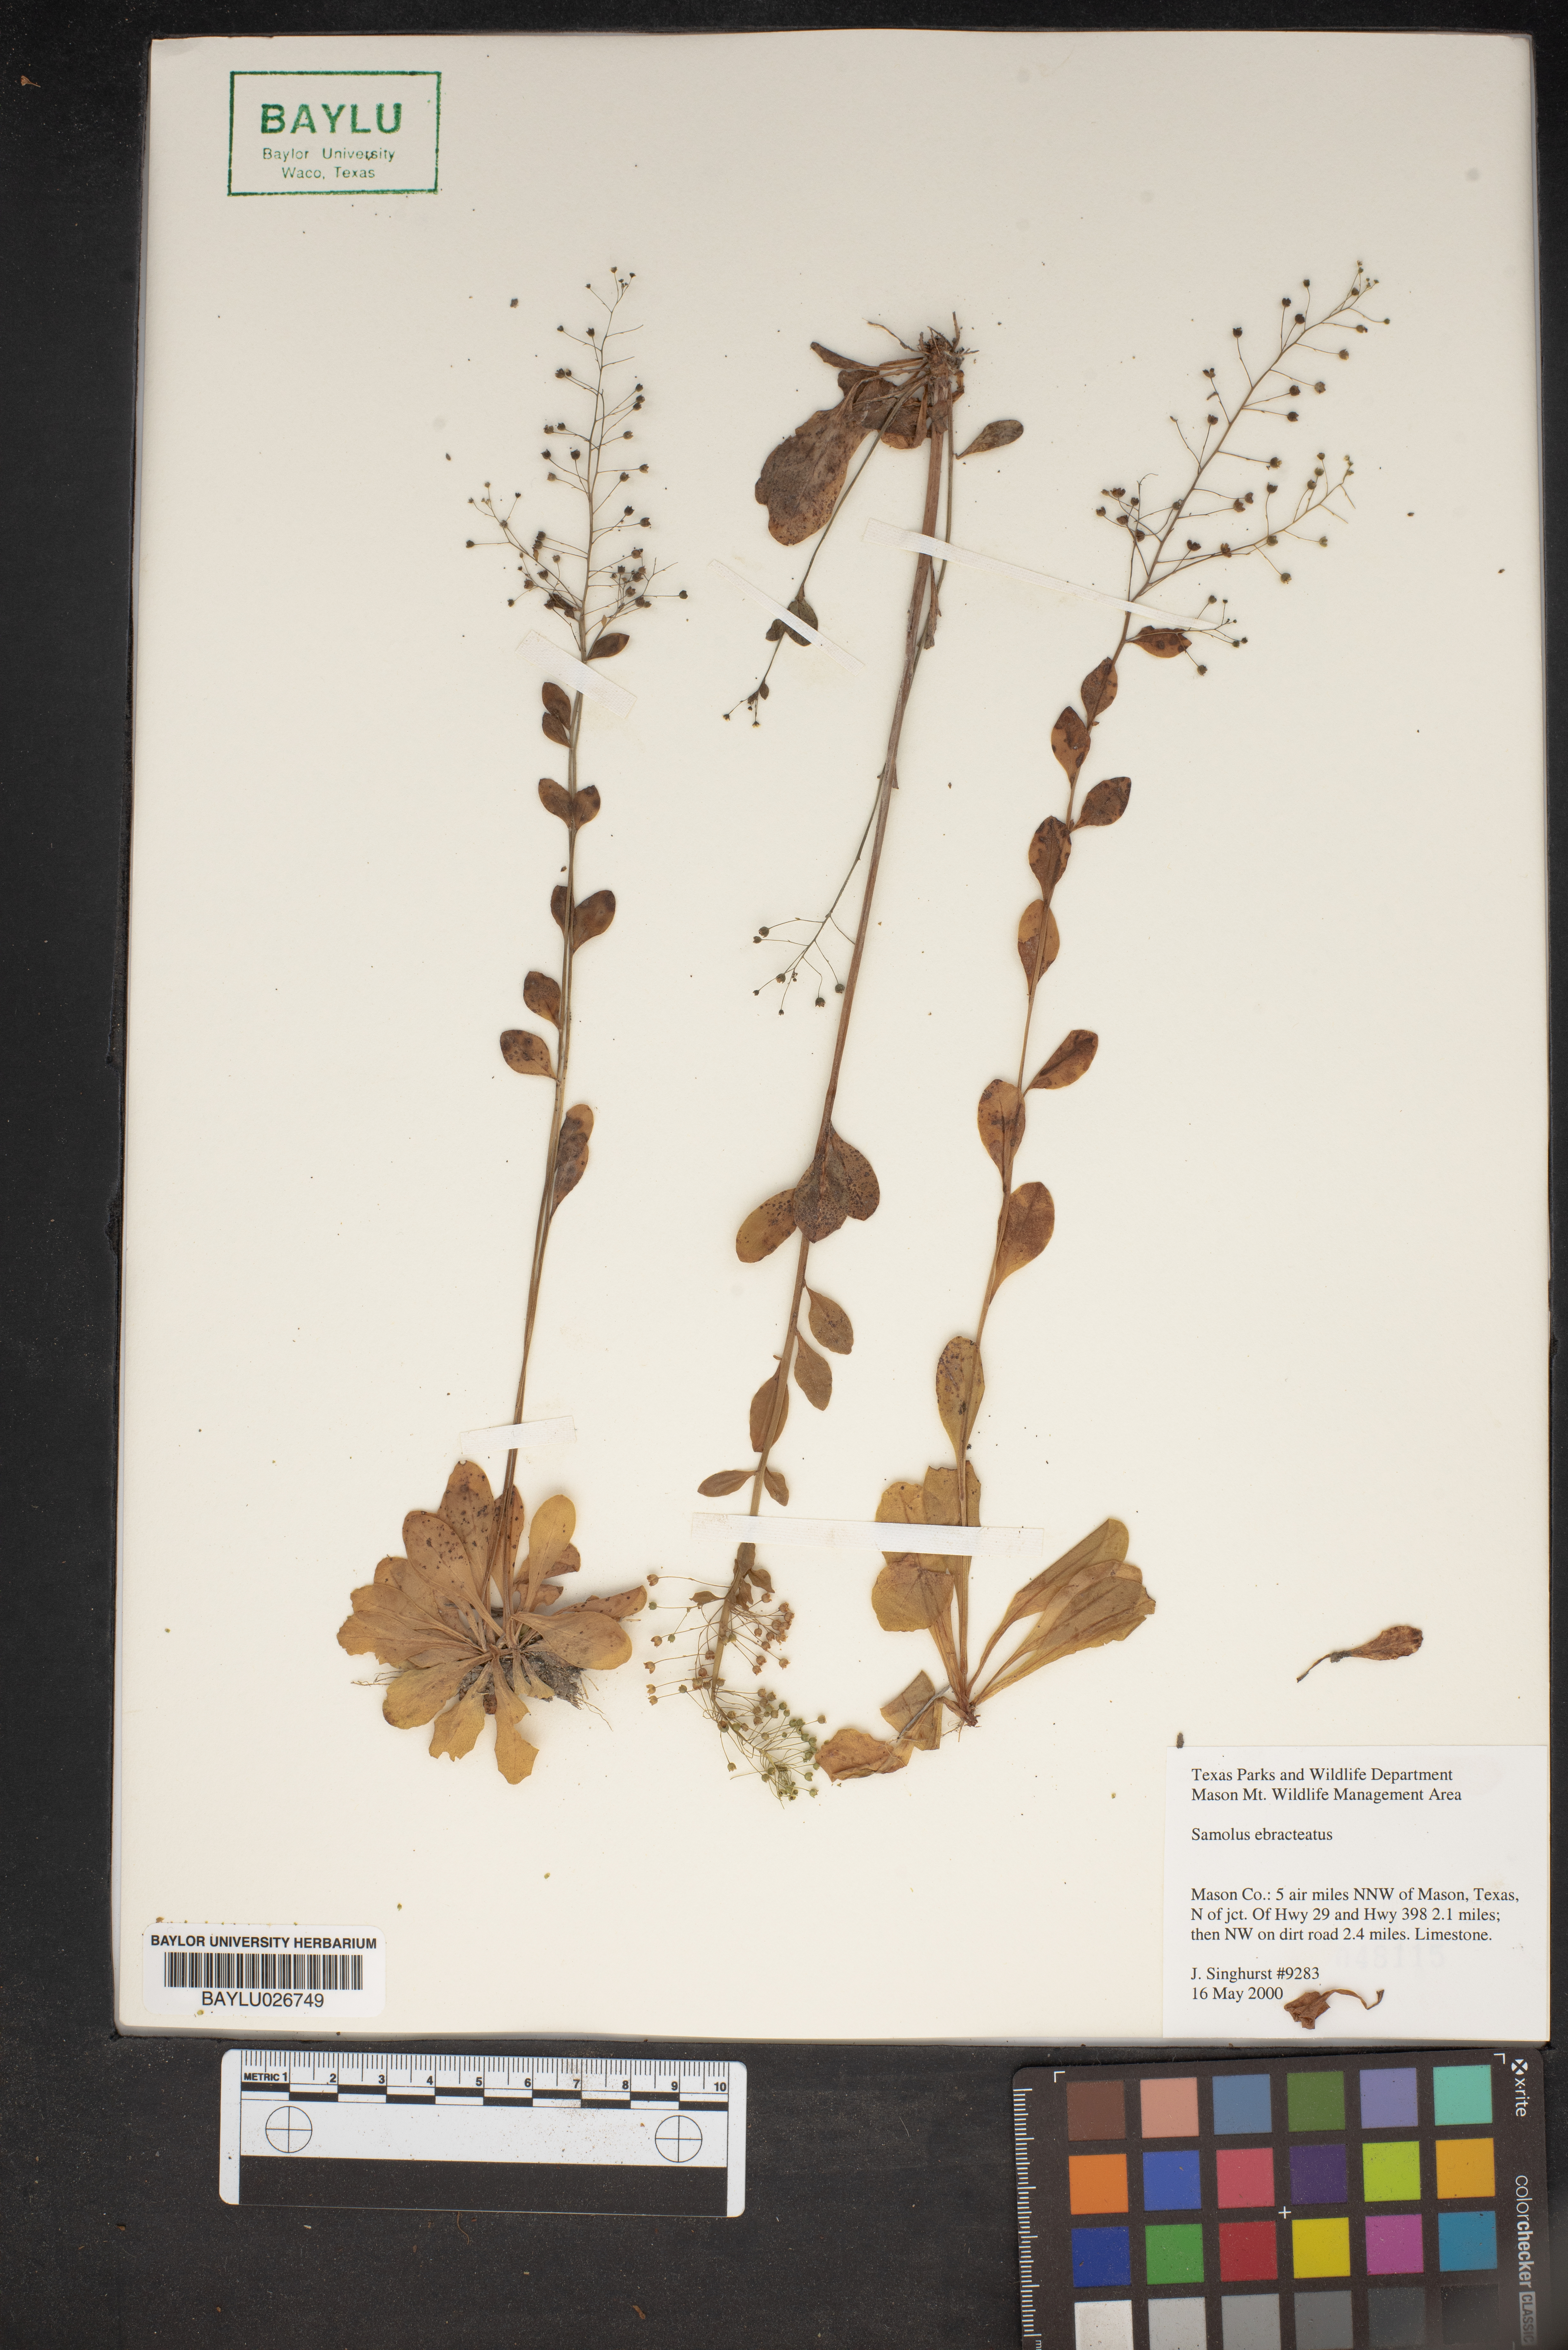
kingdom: Plantae
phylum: Tracheophyta
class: Magnoliopsida
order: Ericales
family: Primulaceae
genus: Samolus
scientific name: Samolus ebracteatus
